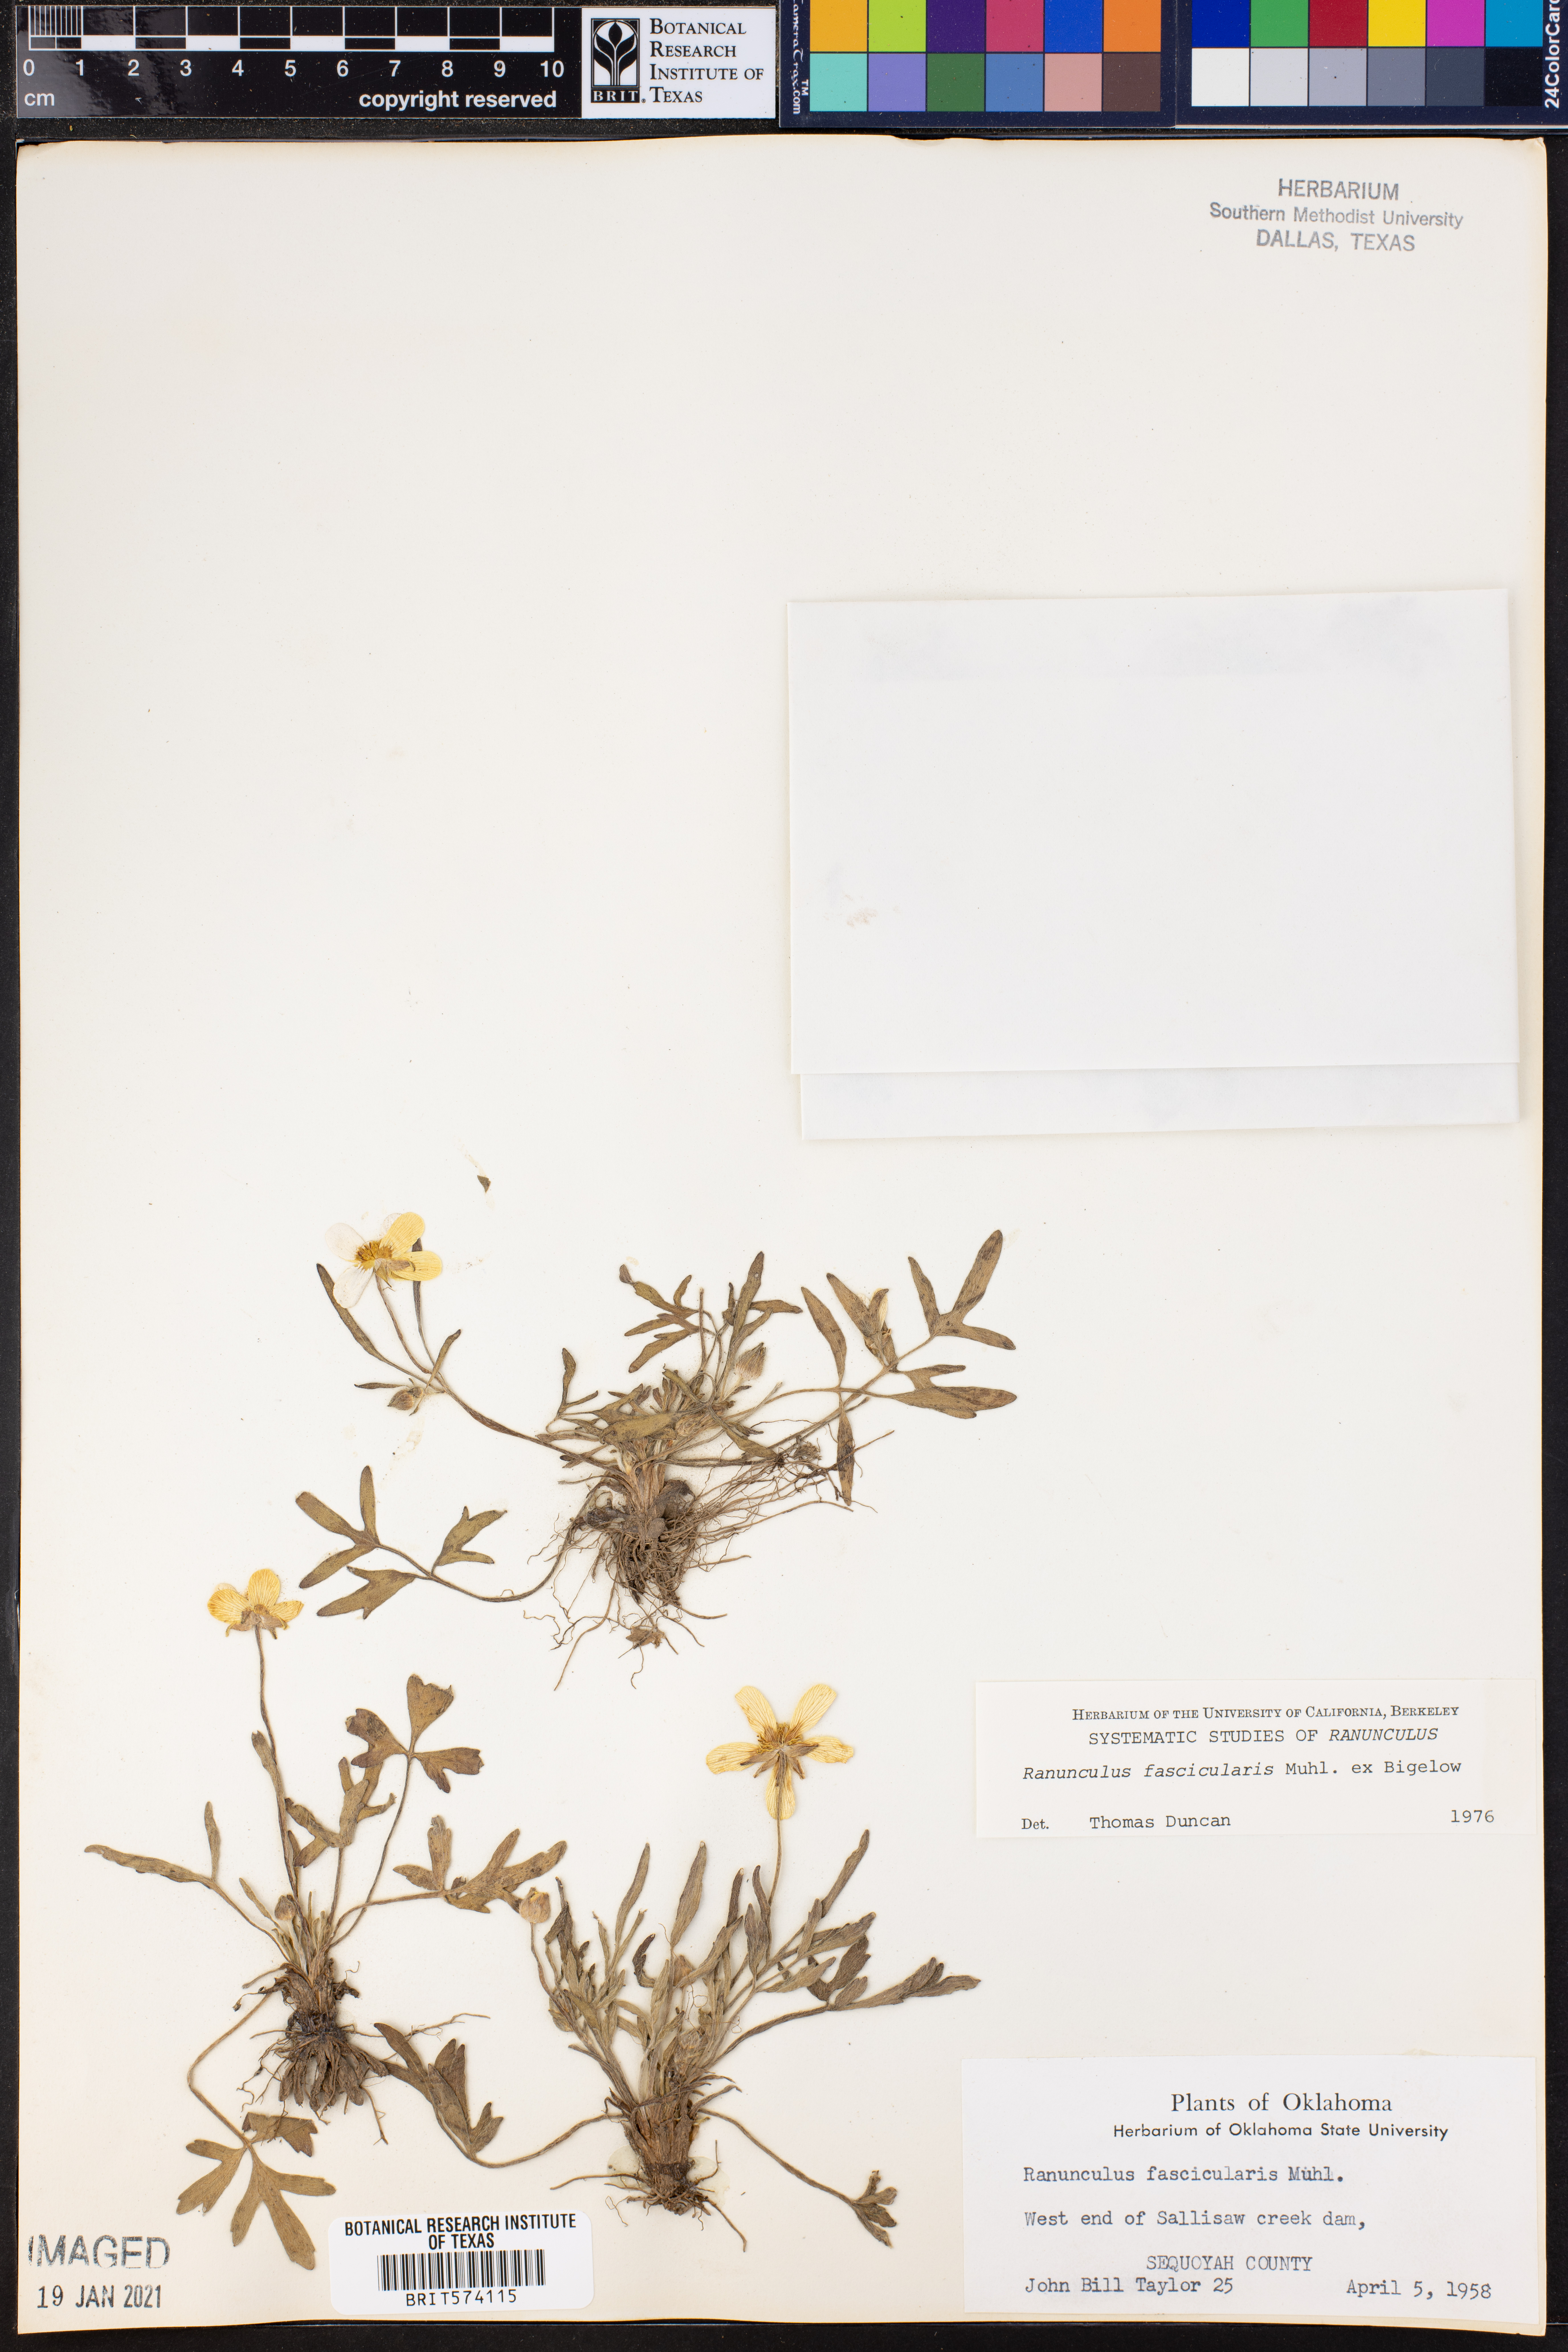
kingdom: Plantae
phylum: Tracheophyta
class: Magnoliopsida
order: Ranunculales
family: Ranunculaceae
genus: Ranunculus
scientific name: Ranunculus fascicularis
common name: Early buttercup
